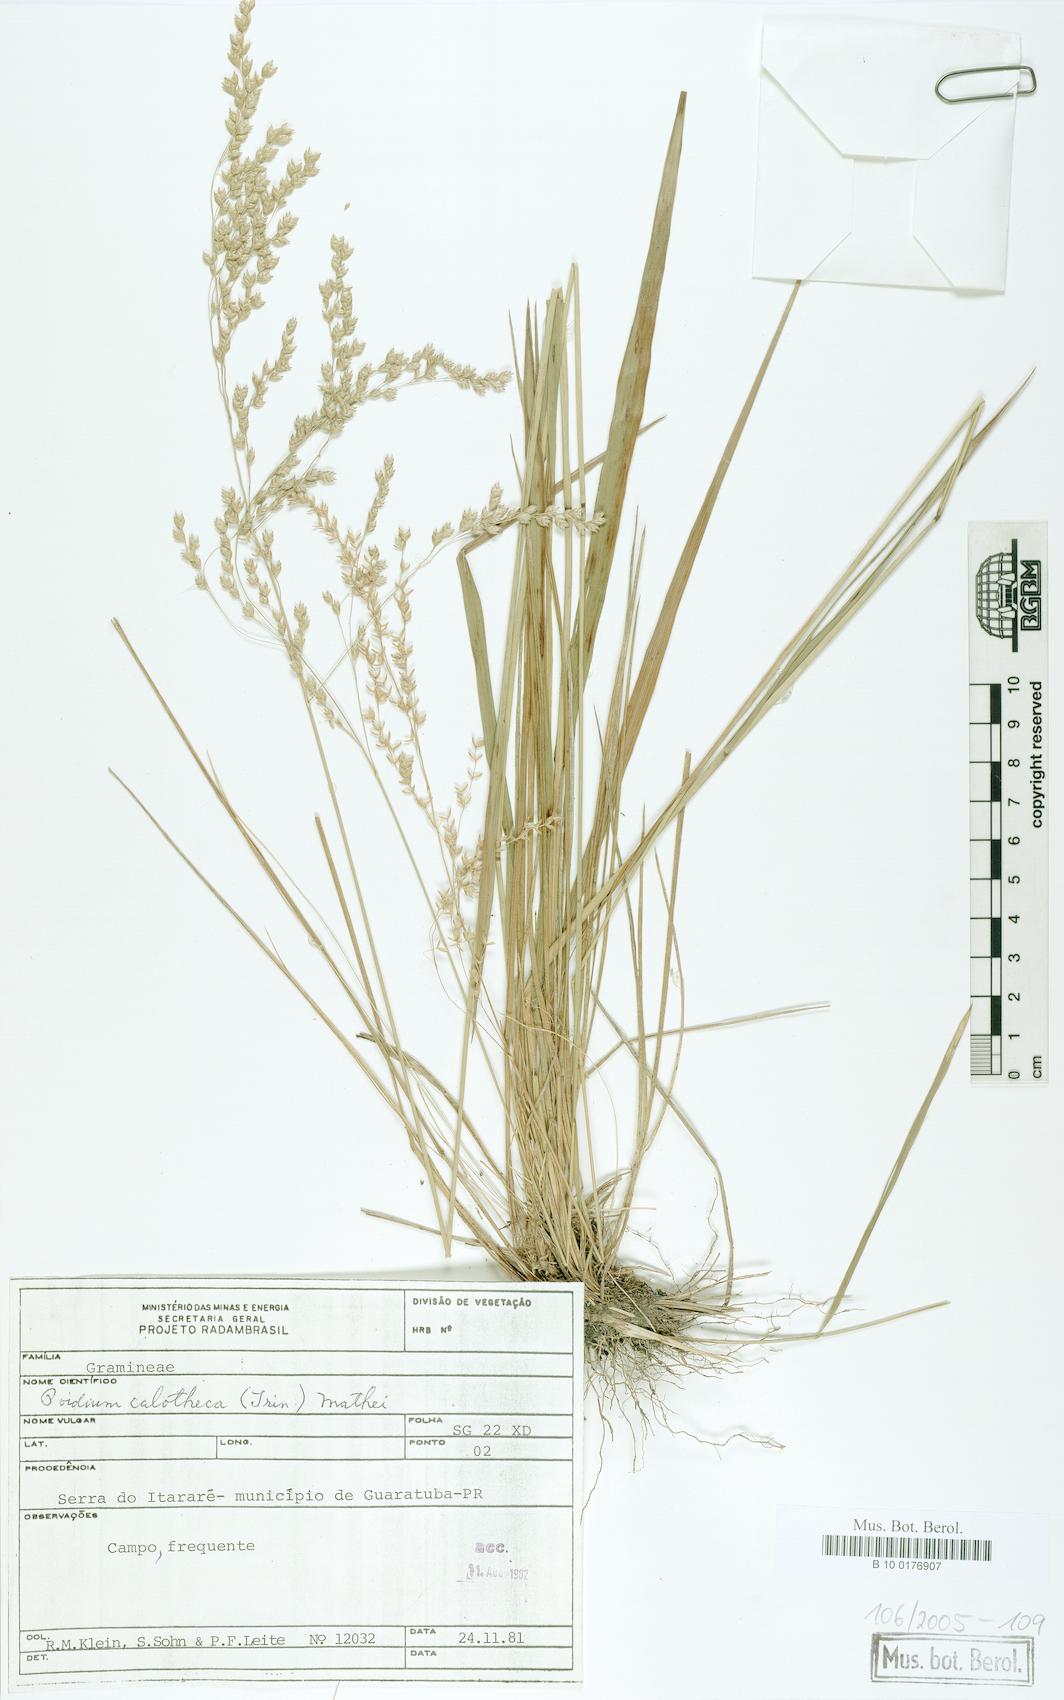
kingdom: Plantae
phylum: Tracheophyta
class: Liliopsida
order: Poales
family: Poaceae
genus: Poidium
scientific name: Poidium calotheca
